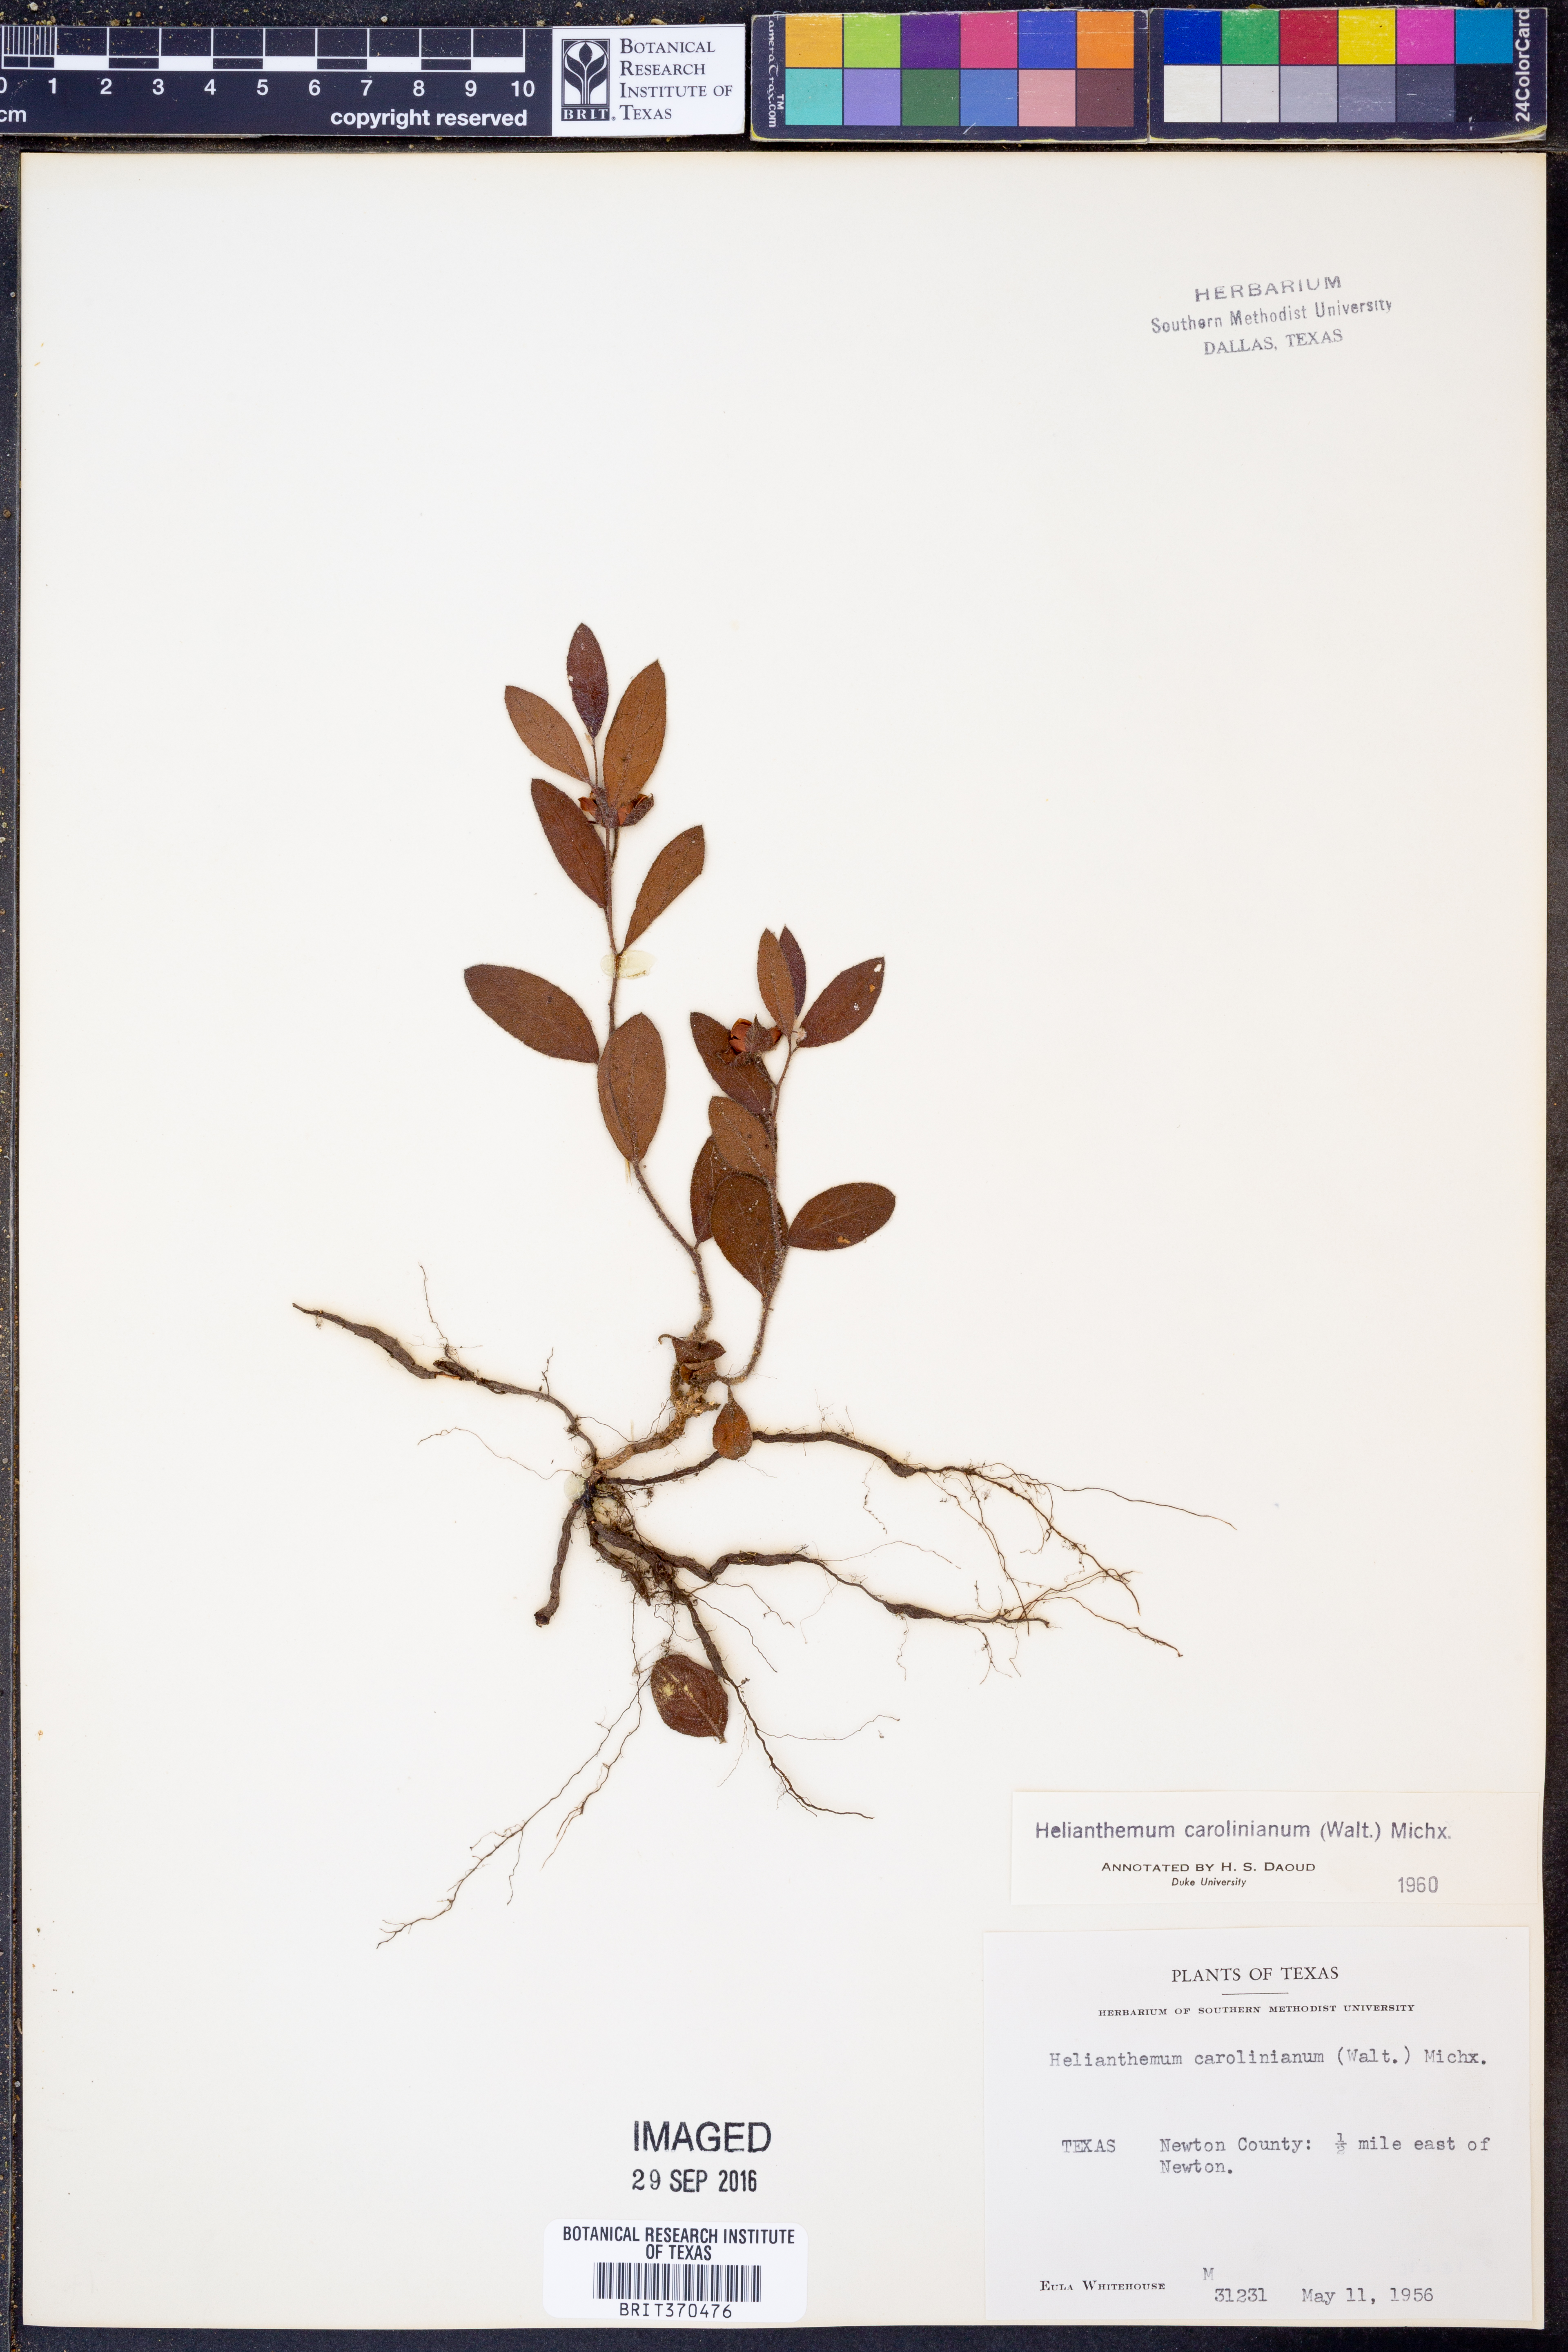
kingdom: Plantae
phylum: Tracheophyta
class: Magnoliopsida
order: Malvales
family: Cistaceae
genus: Crocanthemum
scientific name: Crocanthemum carolinianum
